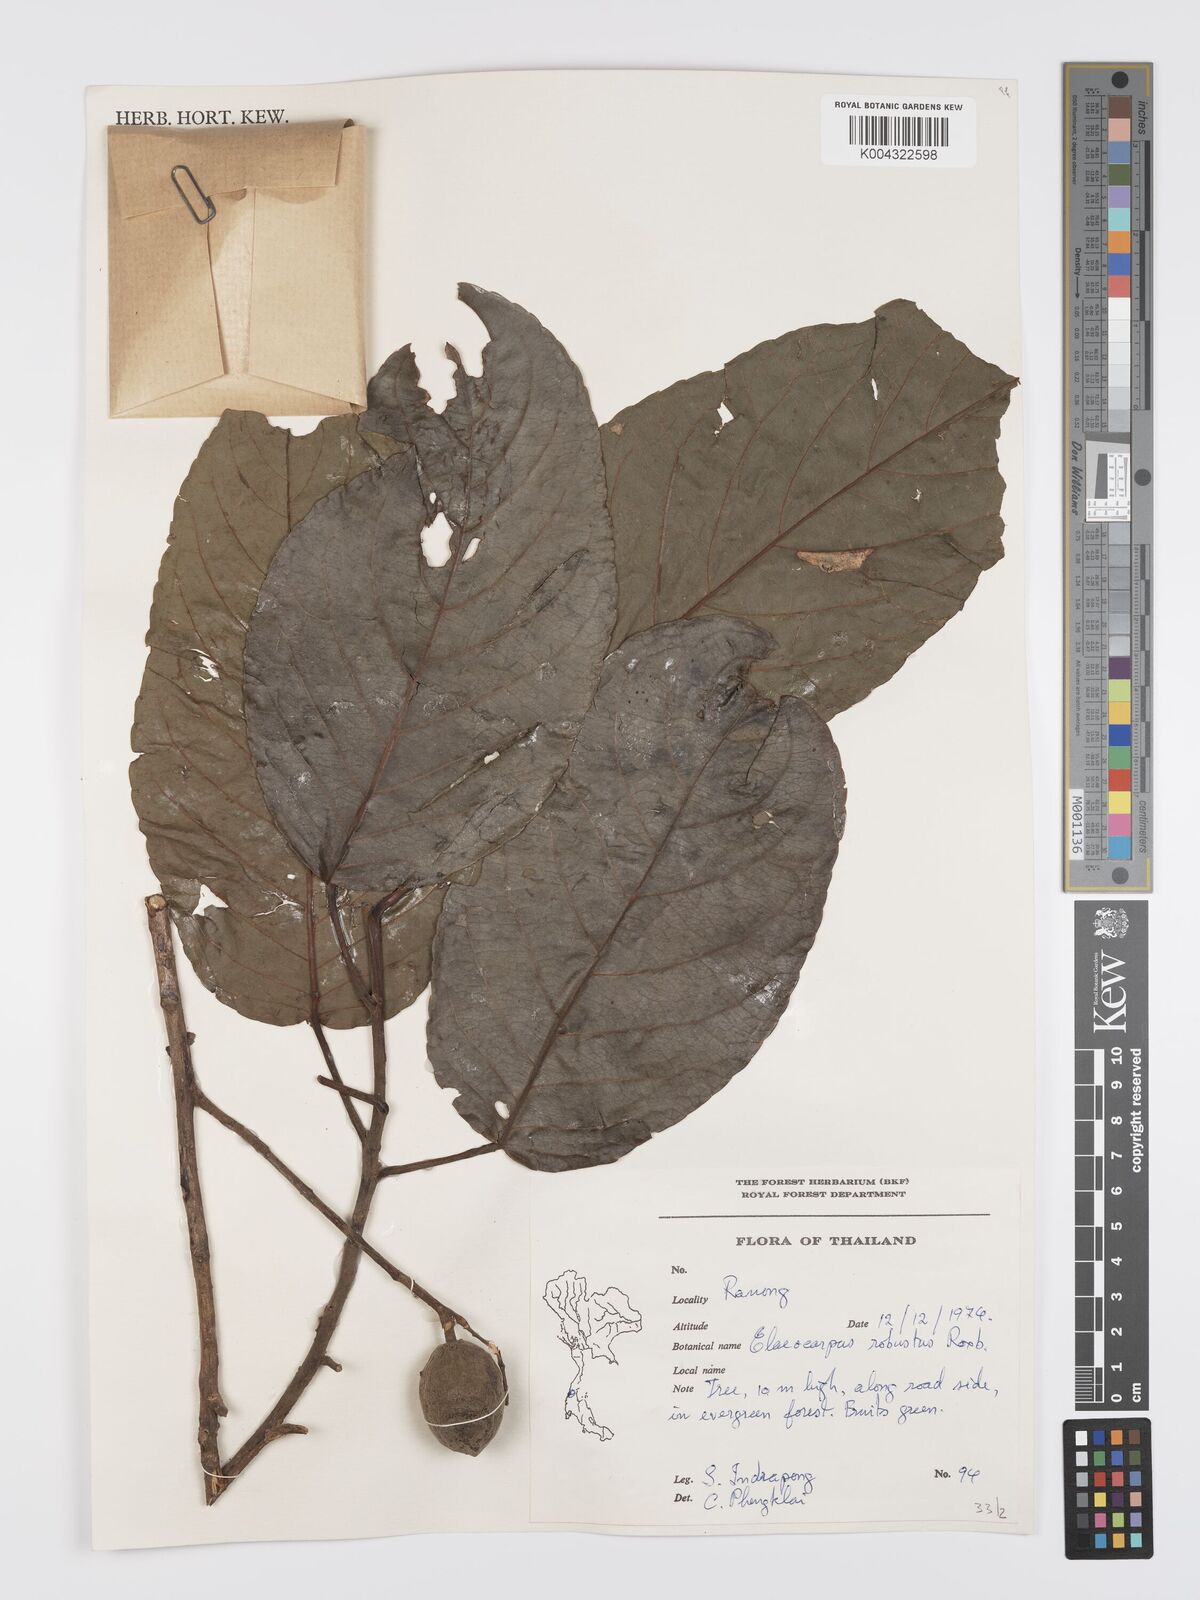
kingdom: Plantae
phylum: Tracheophyta
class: Magnoliopsida
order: Oxalidales
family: Elaeocarpaceae
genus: Elaeocarpus
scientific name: Elaeocarpus robustus
